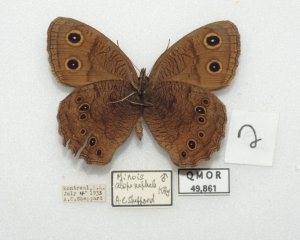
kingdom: Animalia
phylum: Arthropoda
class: Insecta
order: Lepidoptera
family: Nymphalidae
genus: Cercyonis
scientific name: Cercyonis pegala
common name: Common Wood-Nymph
